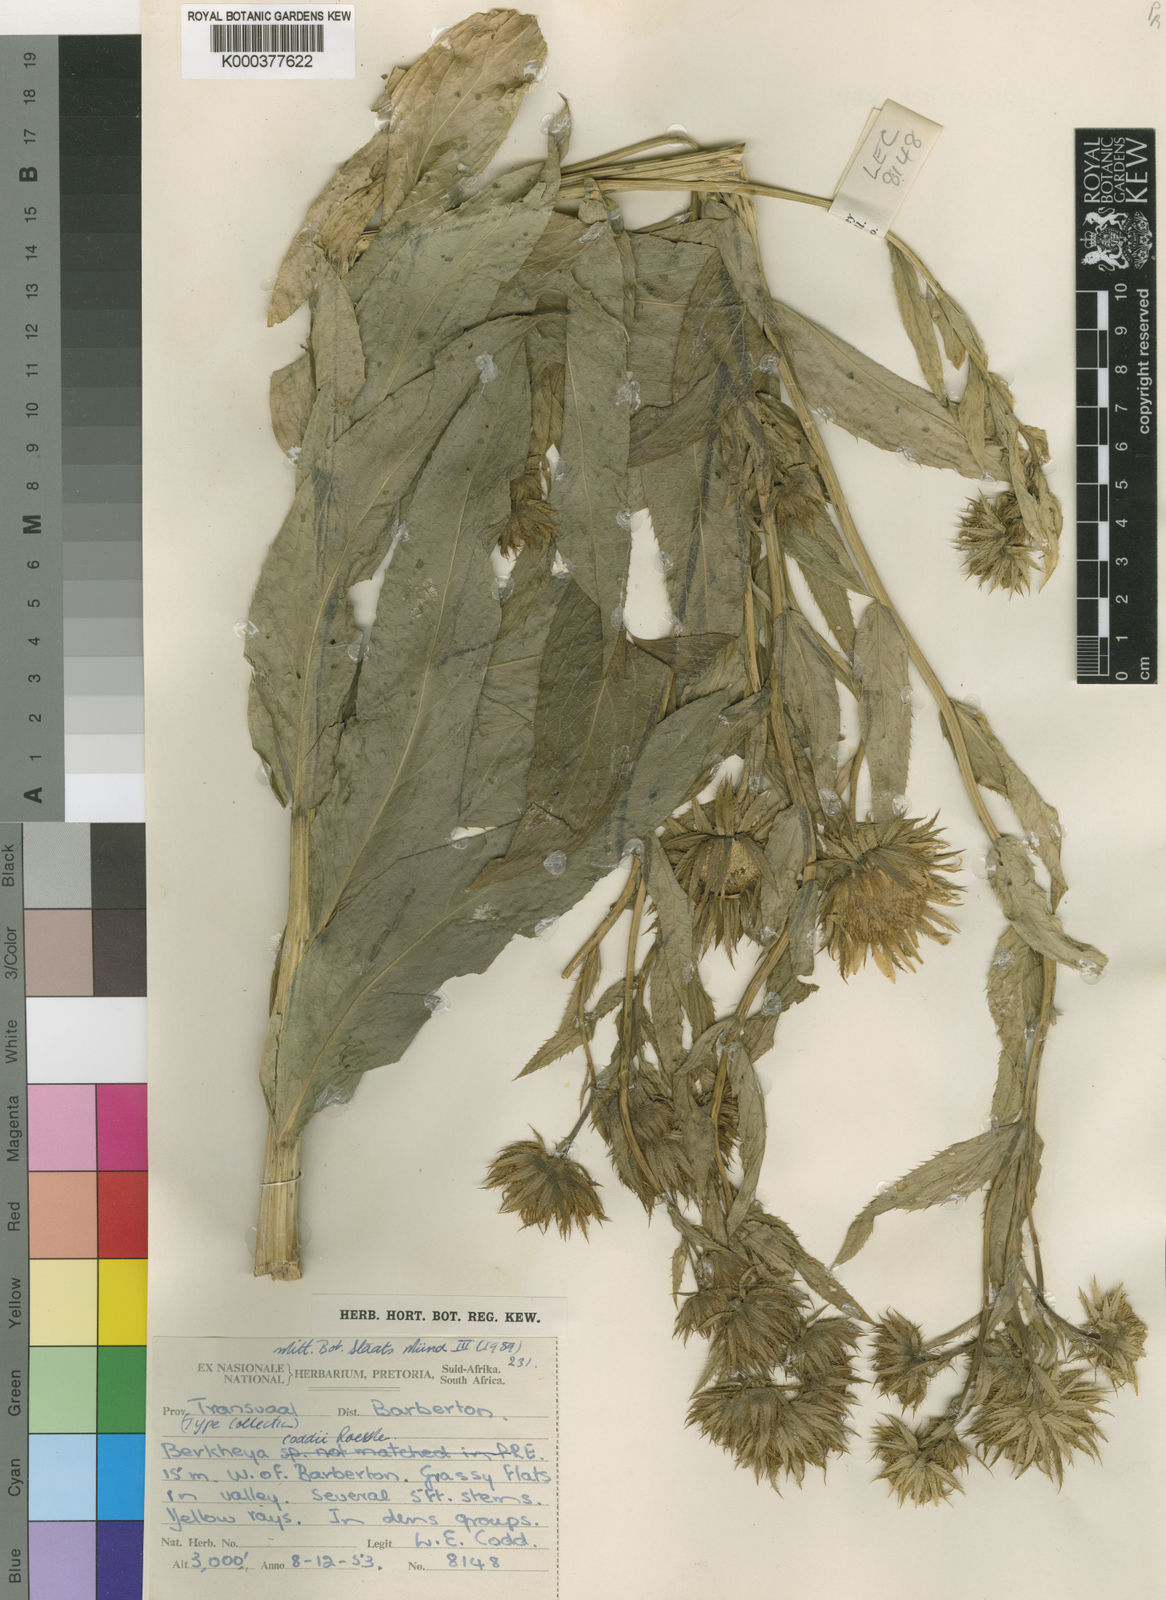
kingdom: Plantae
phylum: Tracheophyta
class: Magnoliopsida
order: Asterales
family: Asteraceae
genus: Berkheya
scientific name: Berkheya coddii
